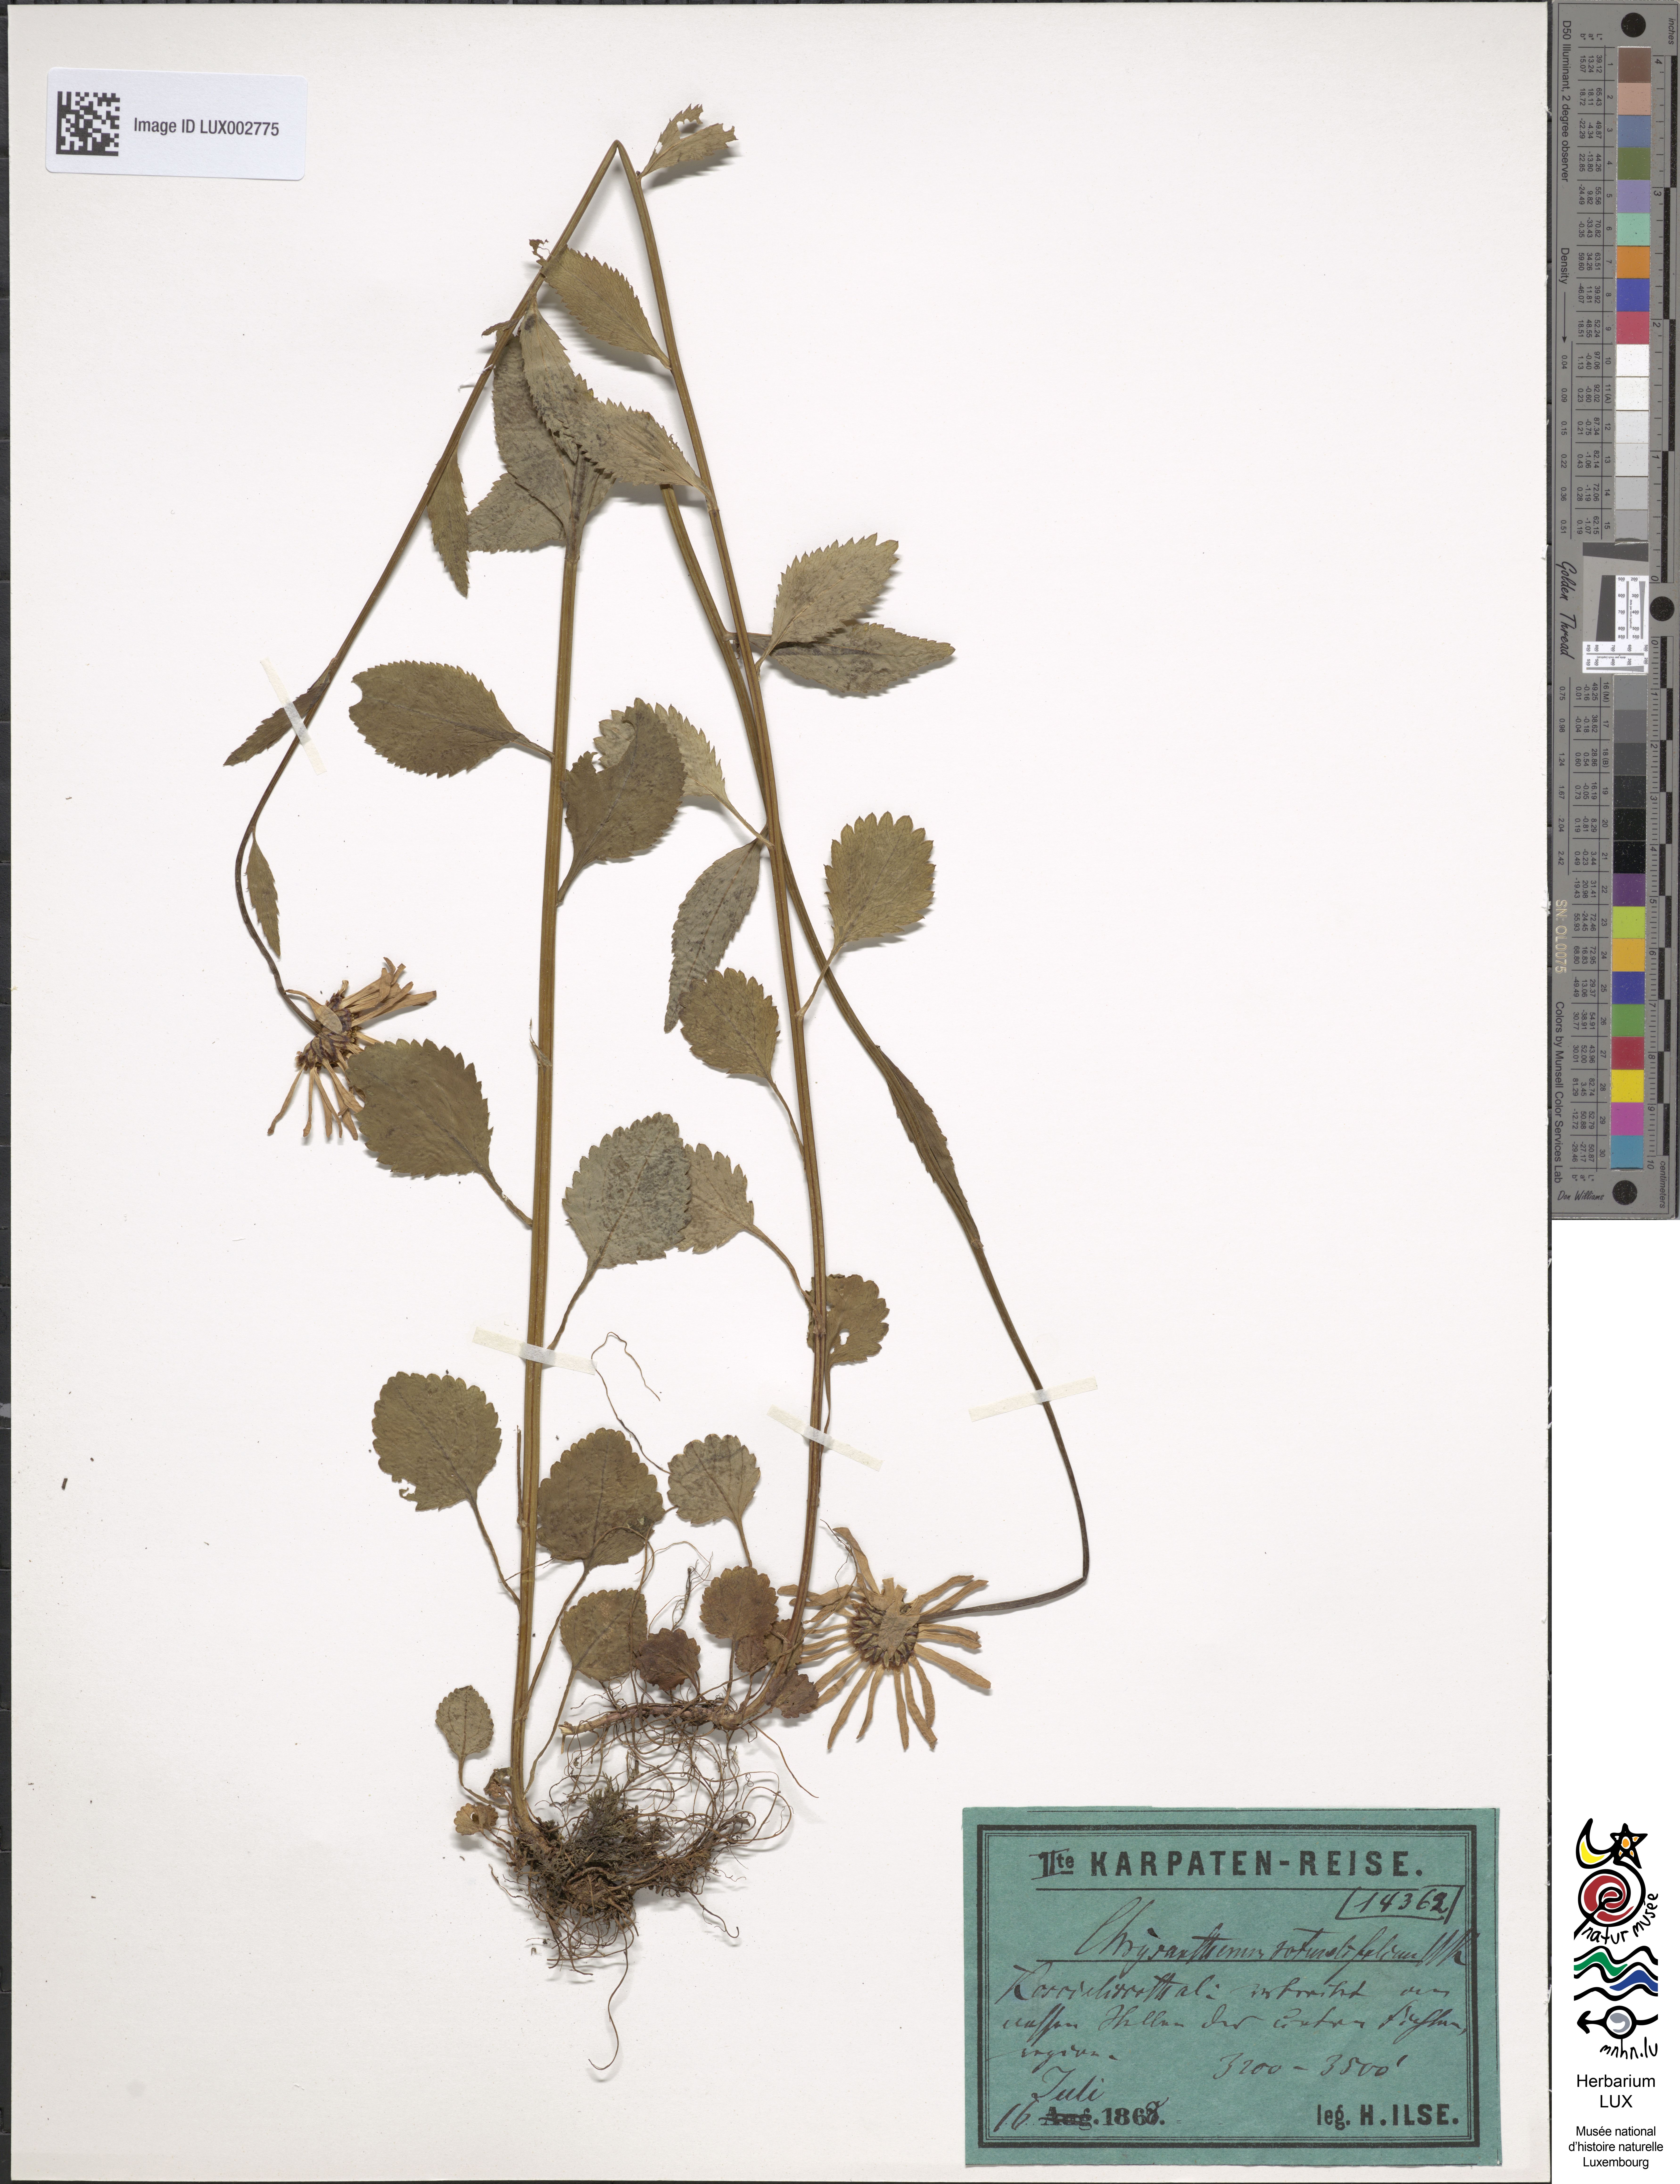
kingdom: Plantae
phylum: Tracheophyta
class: Magnoliopsida
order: Asterales
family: Asteraceae
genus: Leucanthemum
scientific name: Leucanthemum rotundifolium
